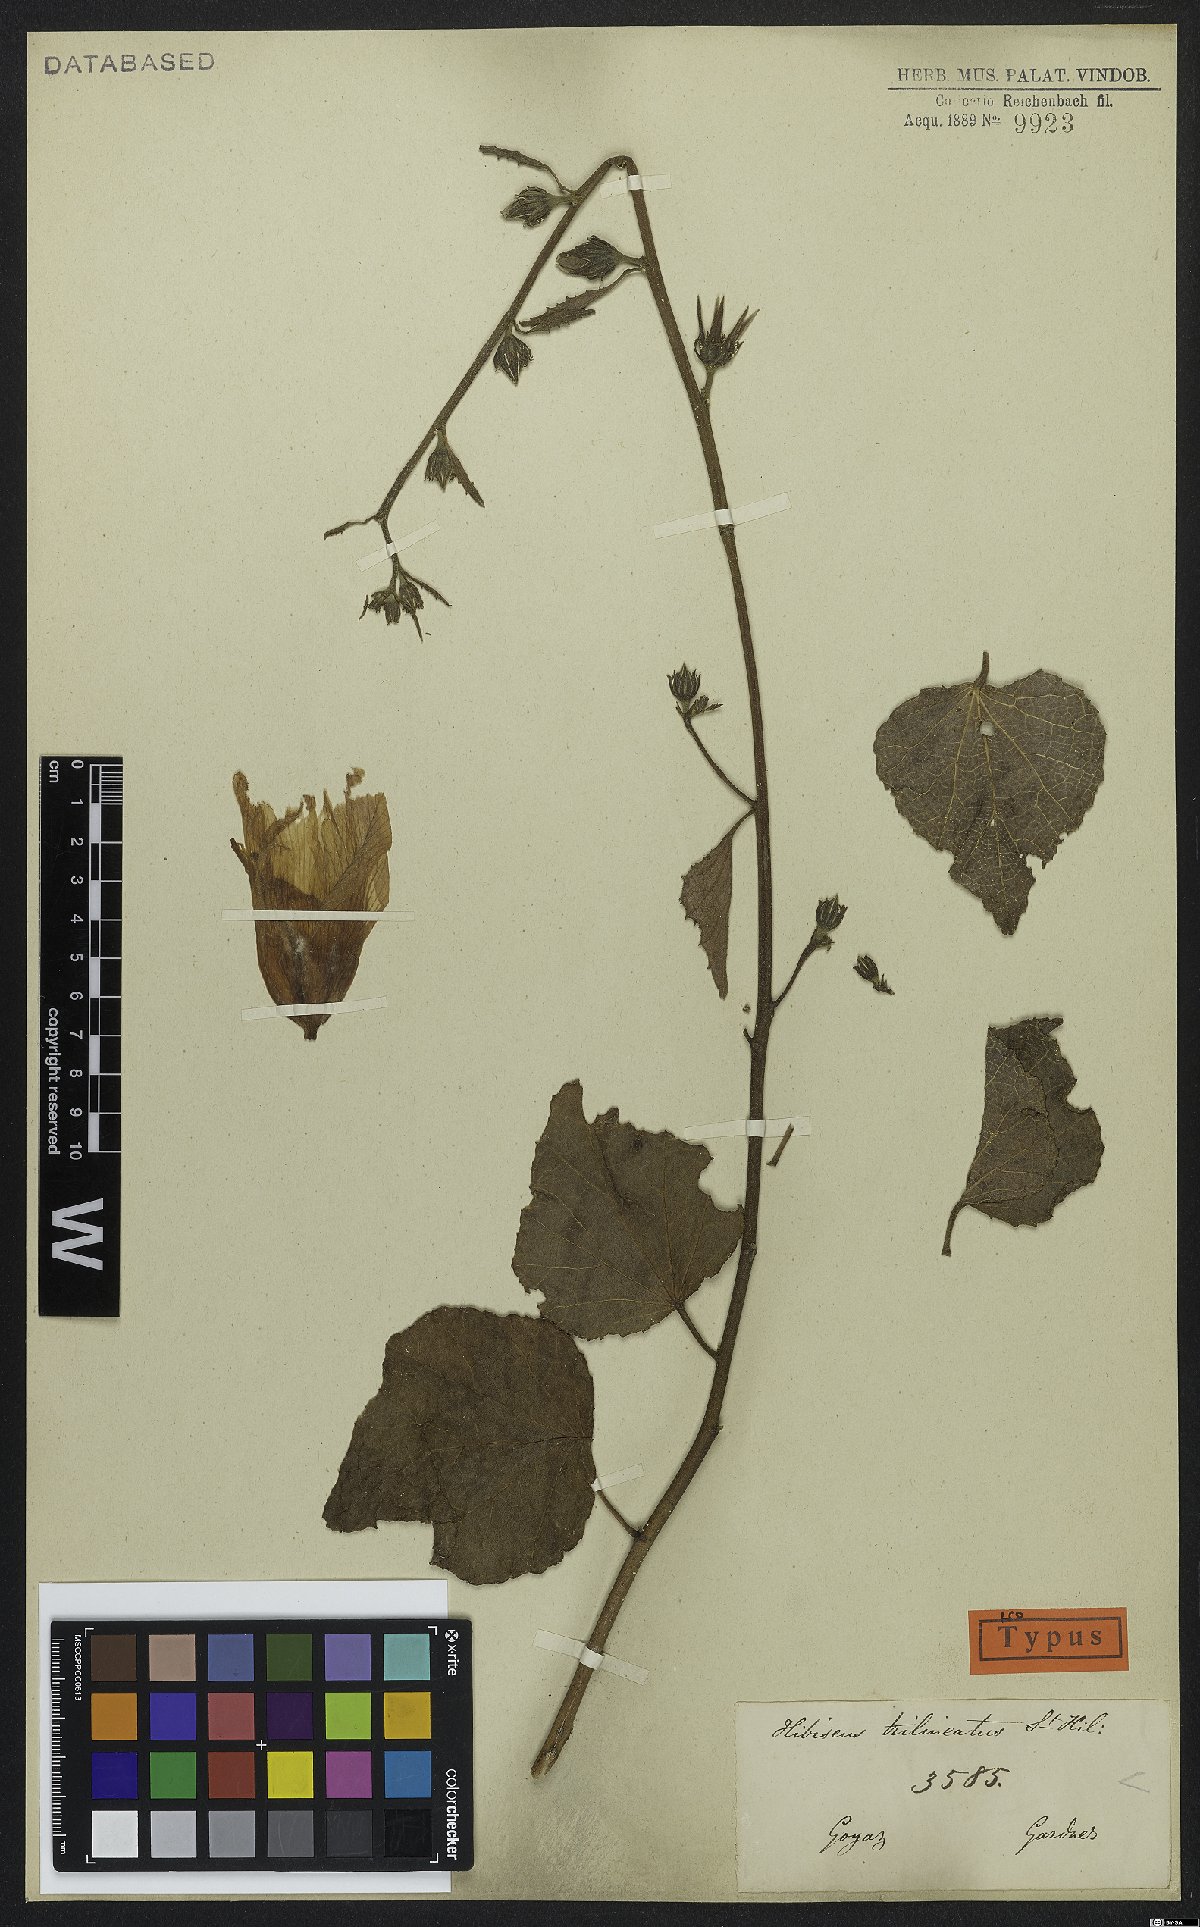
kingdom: Plantae
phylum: Tracheophyta
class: Magnoliopsida
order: Malvales
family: Malvaceae
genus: Hibiscus
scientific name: Hibiscus trilineatus
